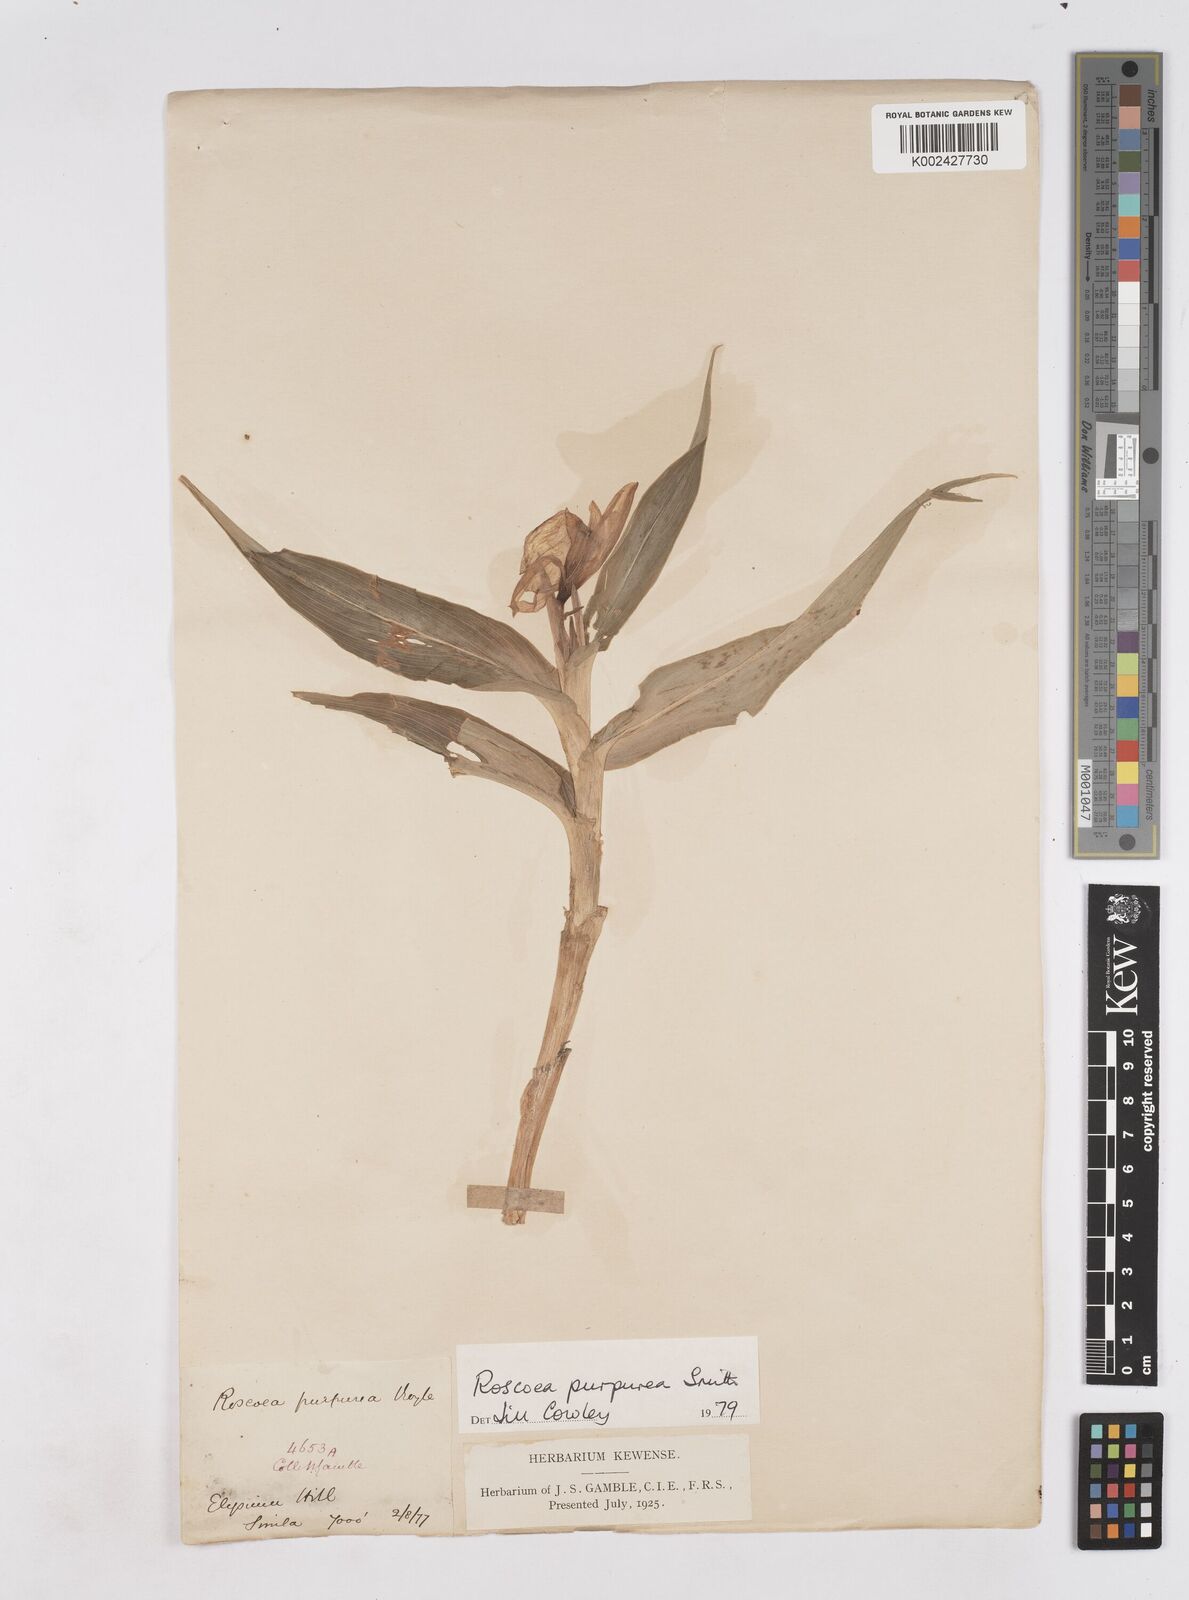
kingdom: Plantae
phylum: Tracheophyta
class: Liliopsida
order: Zingiberales
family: Zingiberaceae
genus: Roscoea
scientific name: Roscoea purpurea
